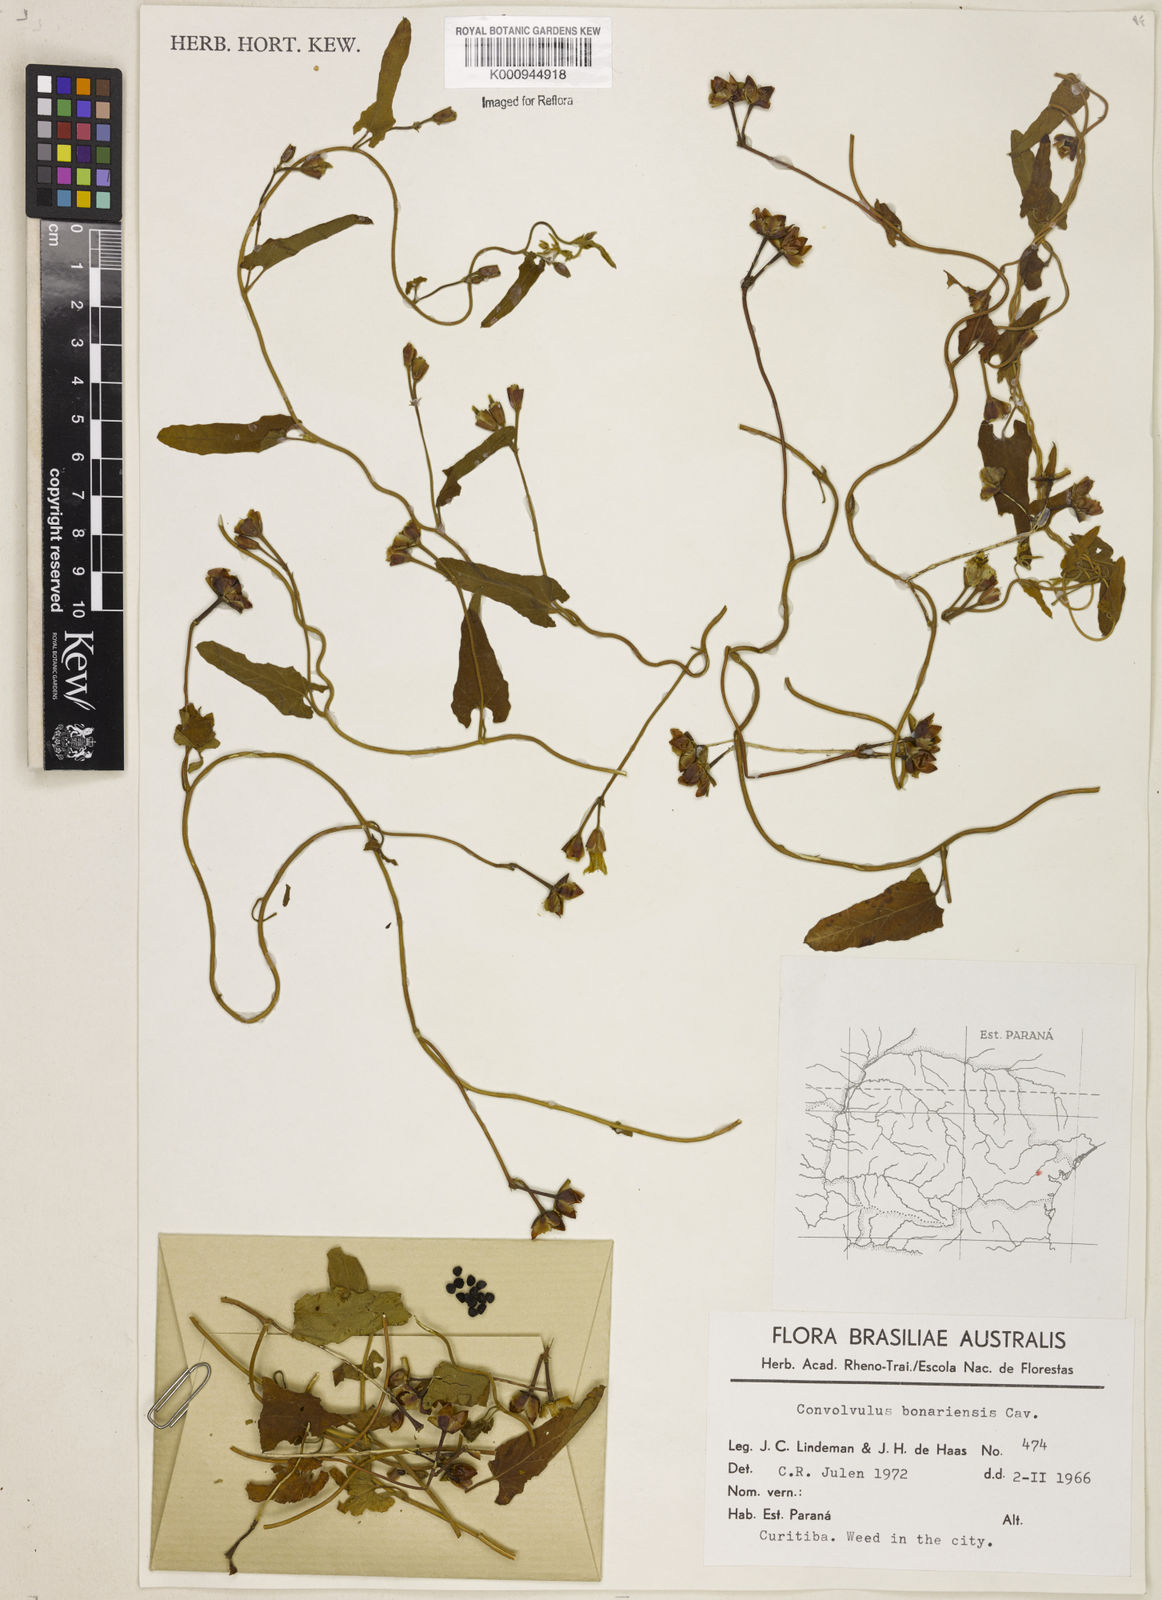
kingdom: Plantae
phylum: Tracheophyta
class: Magnoliopsida
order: Solanales
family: Convolvulaceae
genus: Convolvulus
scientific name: Convolvulus crenatifolius
